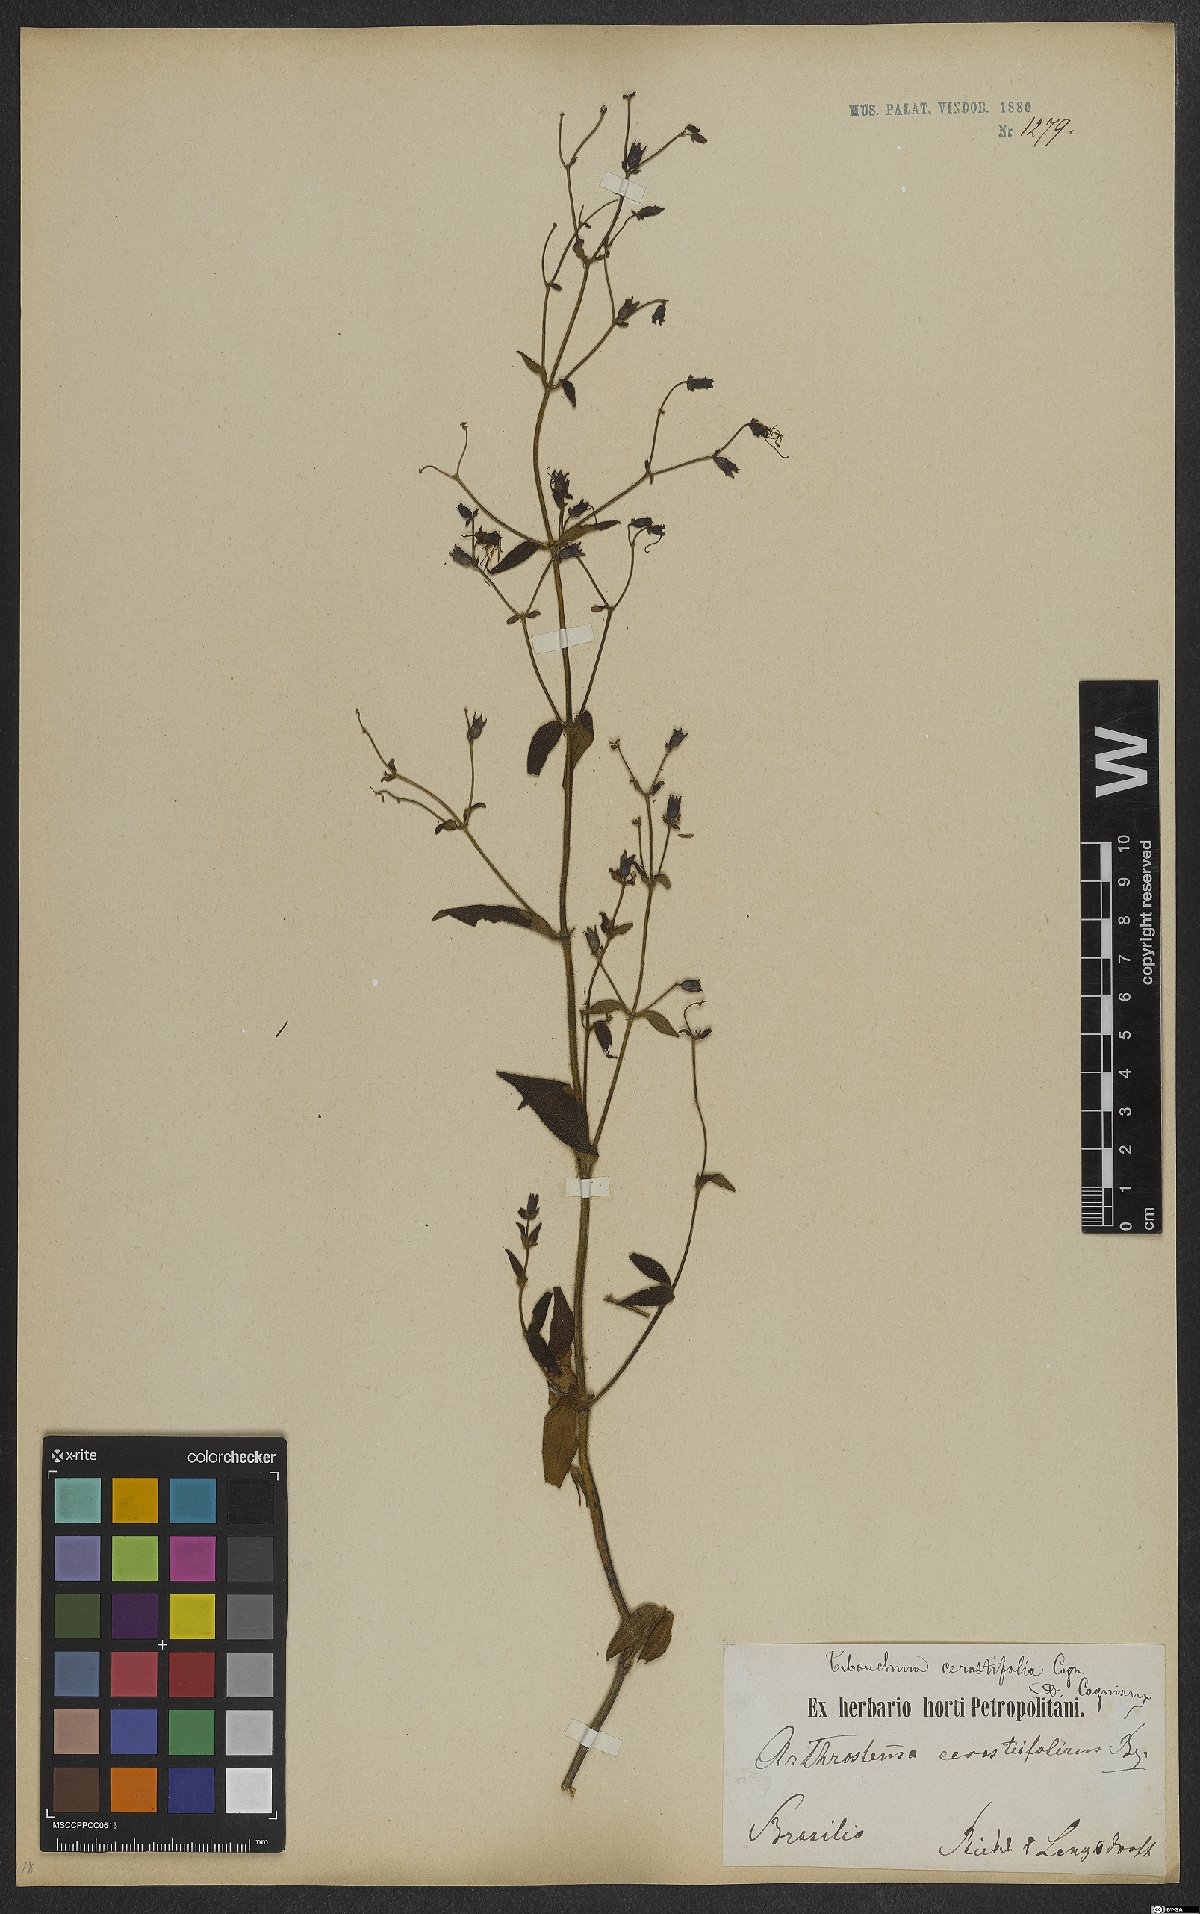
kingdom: Plantae
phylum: Tracheophyta
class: Magnoliopsida
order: Myrtales
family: Melastomataceae
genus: Chaetogastra
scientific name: Chaetogastra cerastifolia
